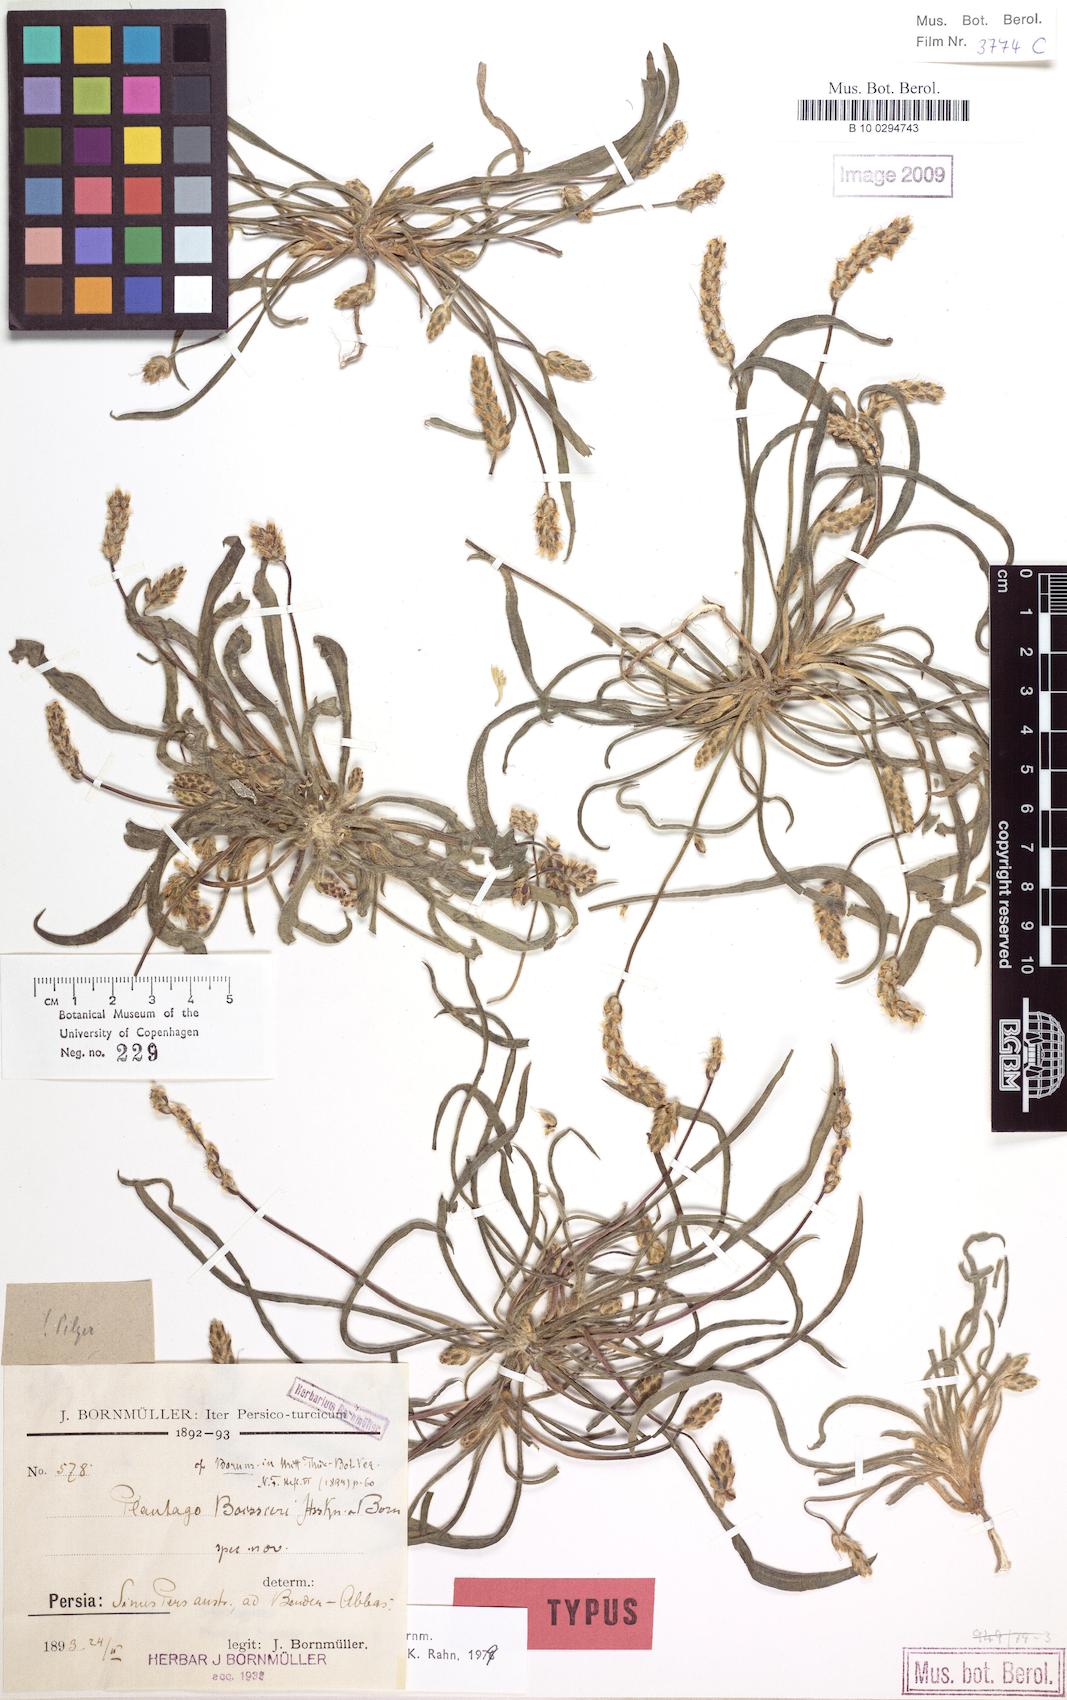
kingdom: Plantae
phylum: Tracheophyta
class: Magnoliopsida
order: Lamiales
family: Plantaginaceae
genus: Plantago
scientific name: Plantago boissieri
